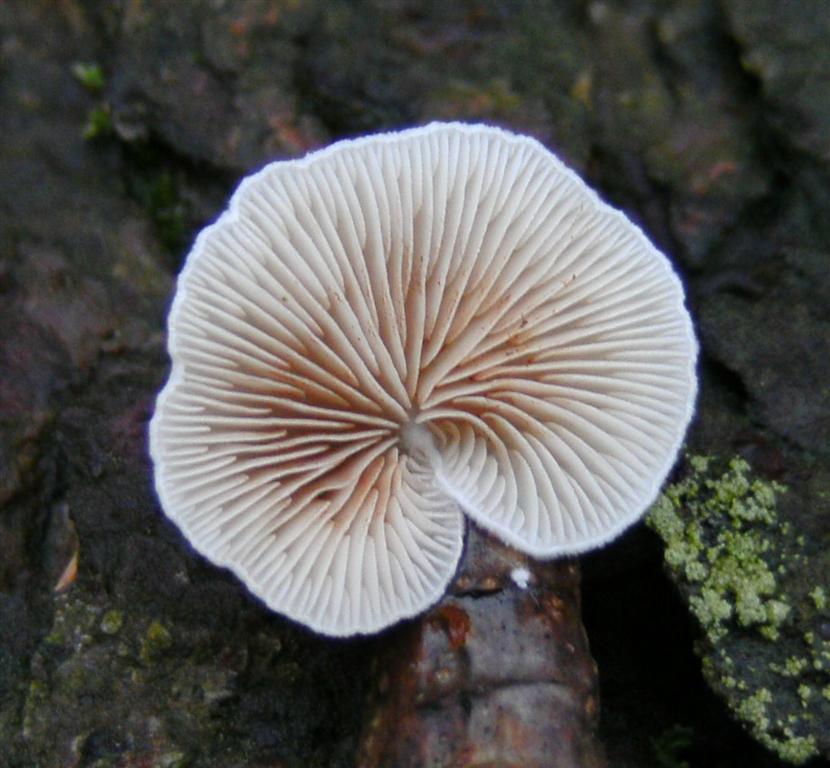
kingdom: Fungi
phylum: Basidiomycota
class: Agaricomycetes
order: Agaricales
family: Crepidotaceae
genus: Crepidotus
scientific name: Crepidotus variabilis
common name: forskelligformet muslingesvamp
